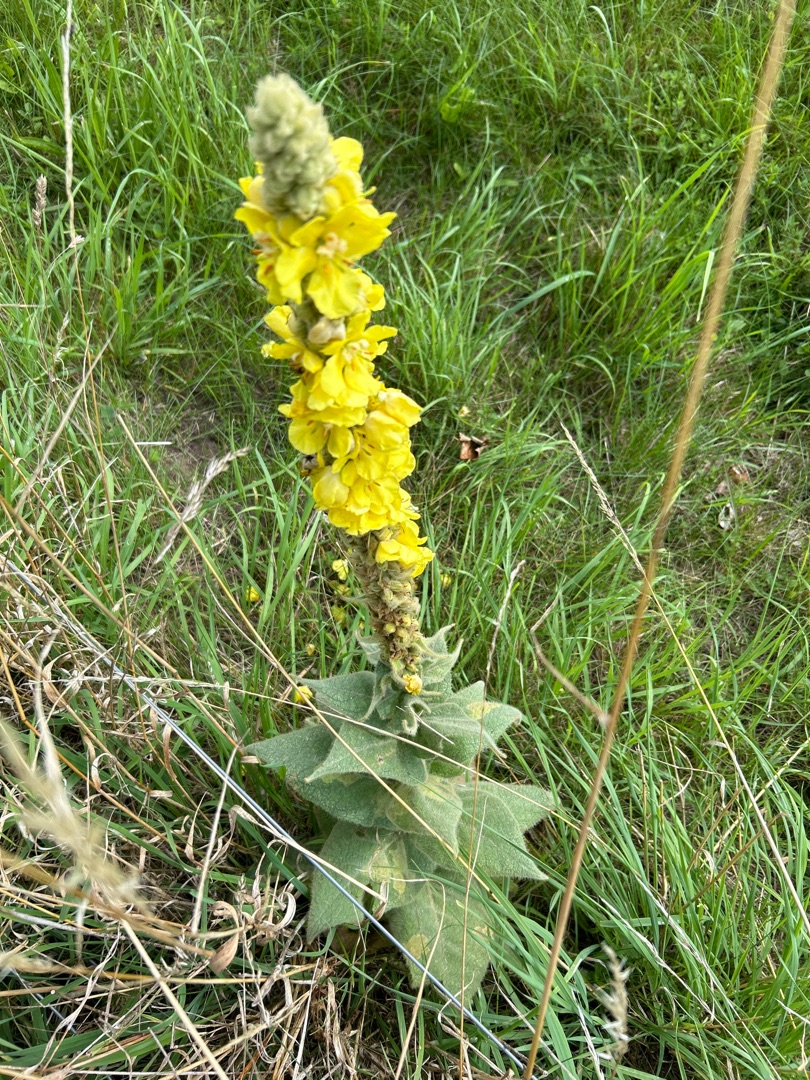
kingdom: Plantae
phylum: Tracheophyta
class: Magnoliopsida
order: Lamiales
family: Scrophulariaceae
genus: Verbascum
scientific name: Verbascum densiflorum
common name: Uldbladet kongelys
